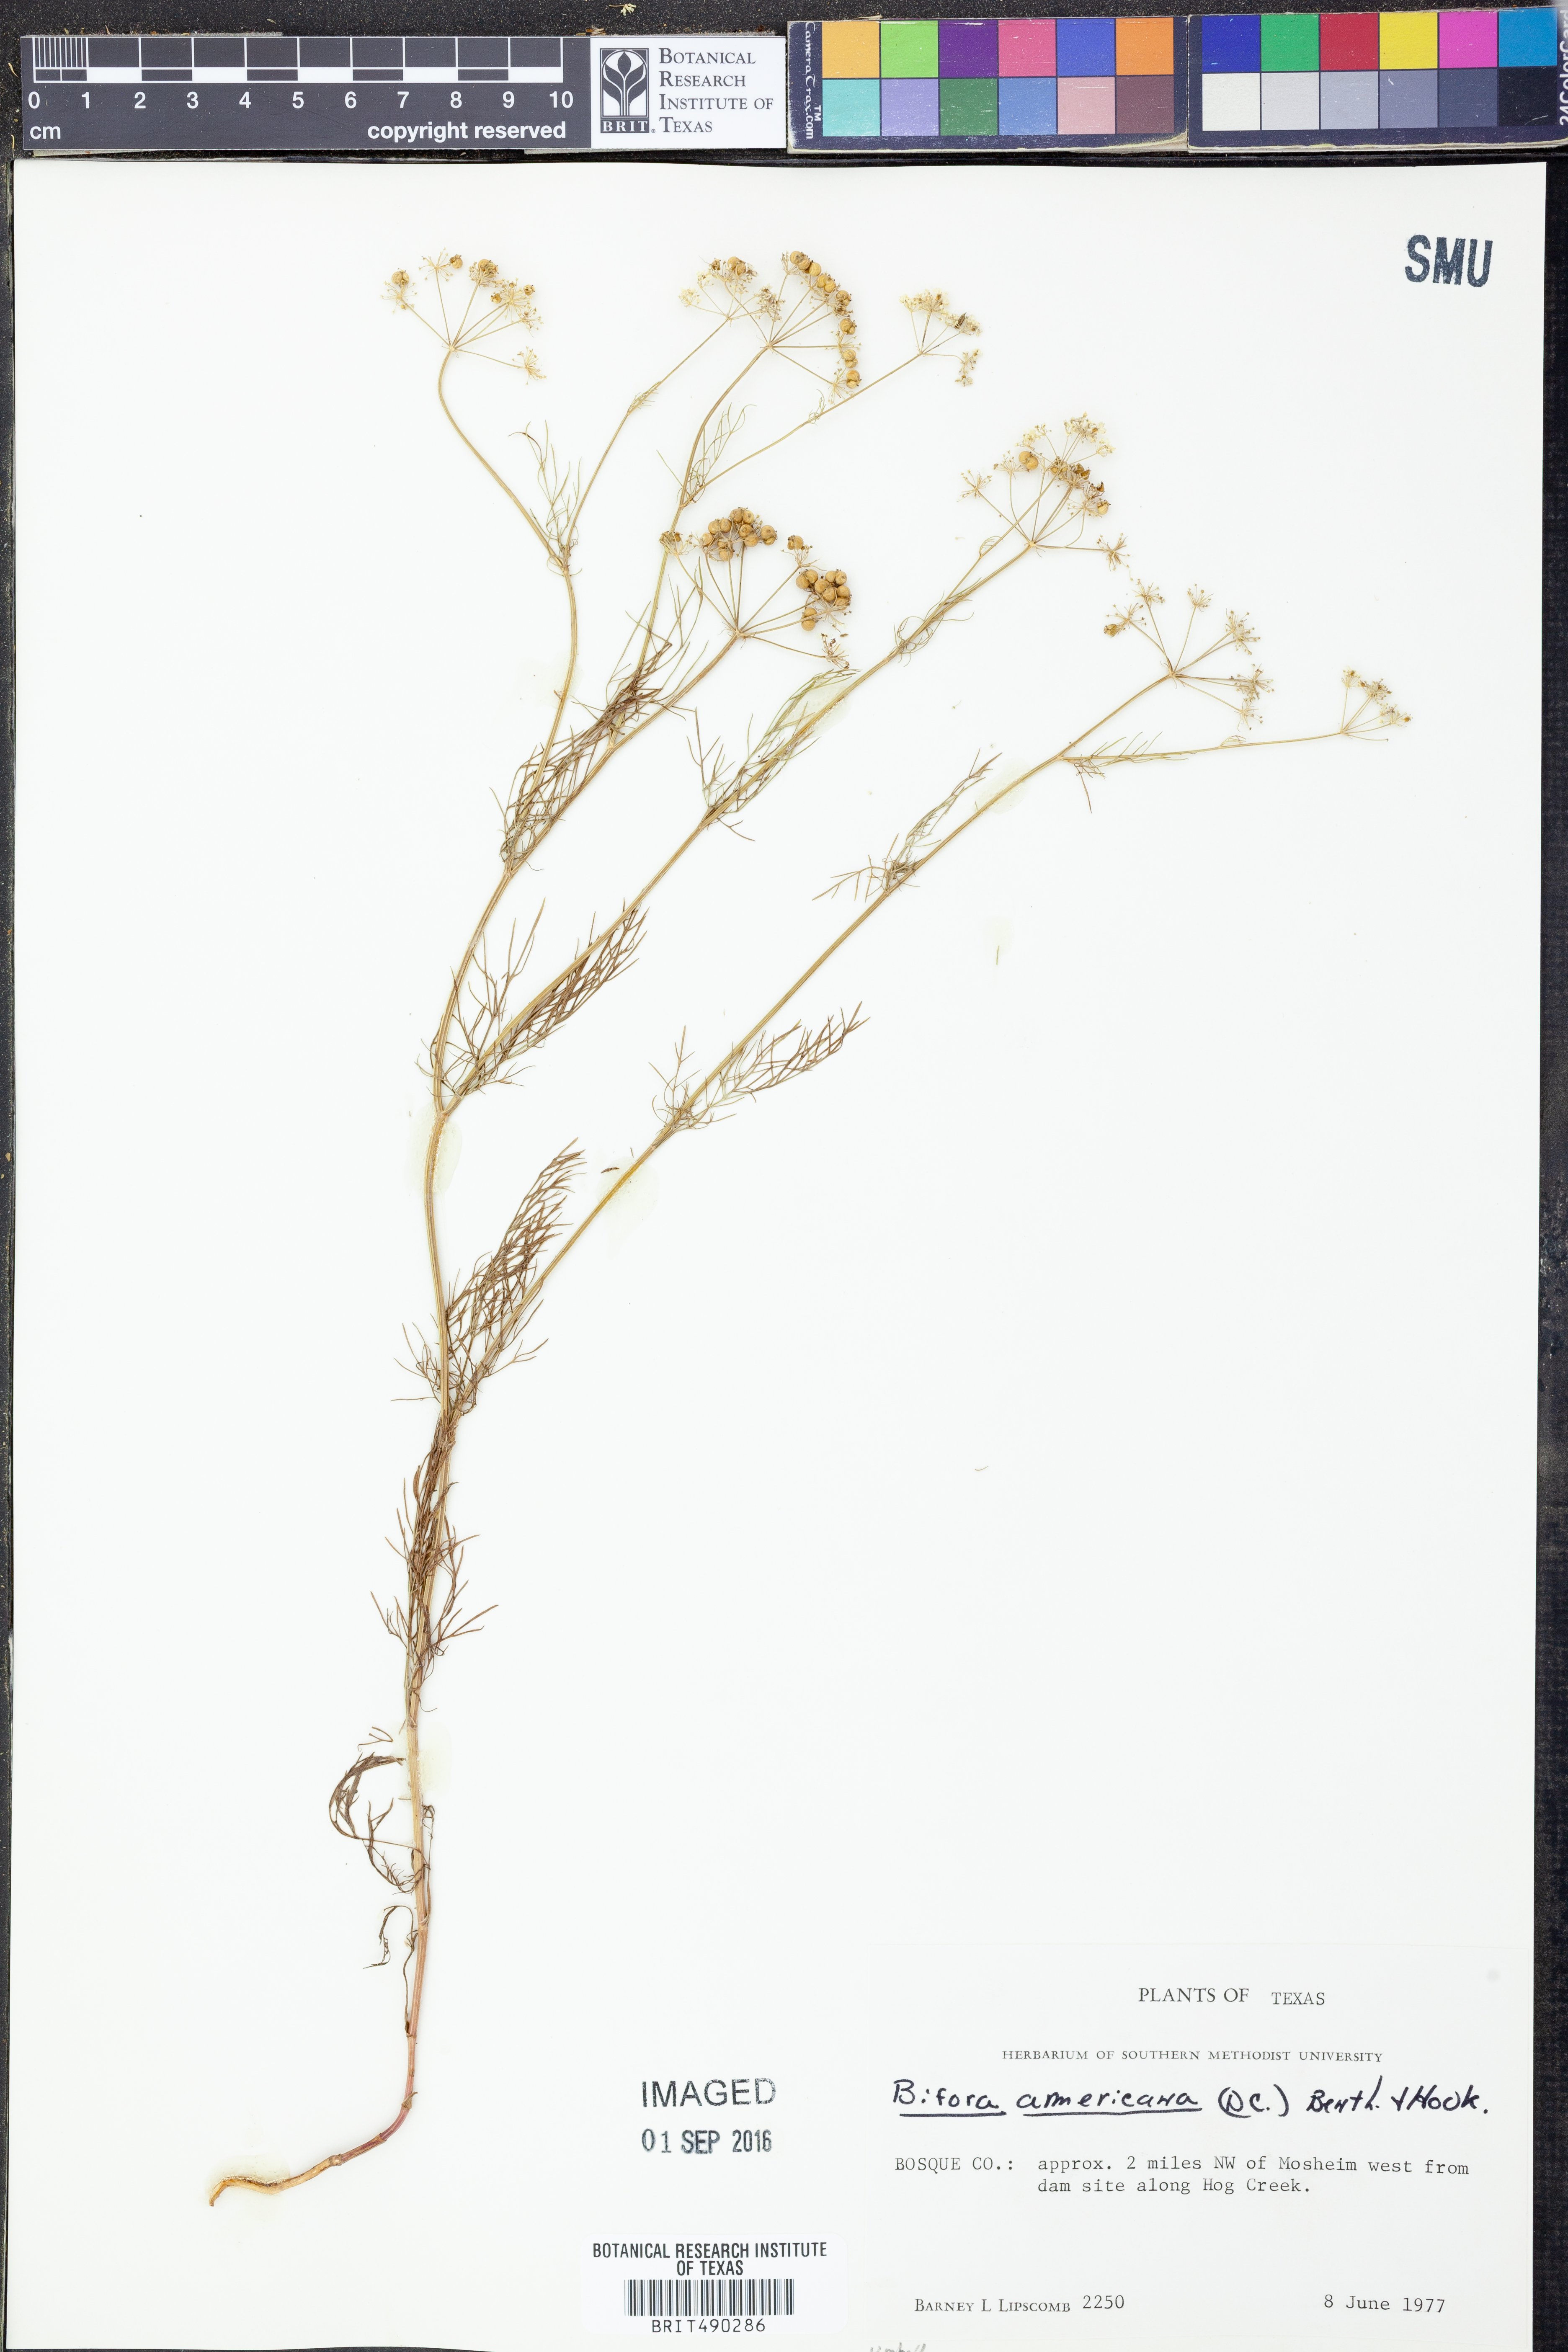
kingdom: Plantae
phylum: Tracheophyta
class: Magnoliopsida
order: Apiales
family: Apiaceae
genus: Atrema
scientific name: Atrema americanum
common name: Prairie-bishop
